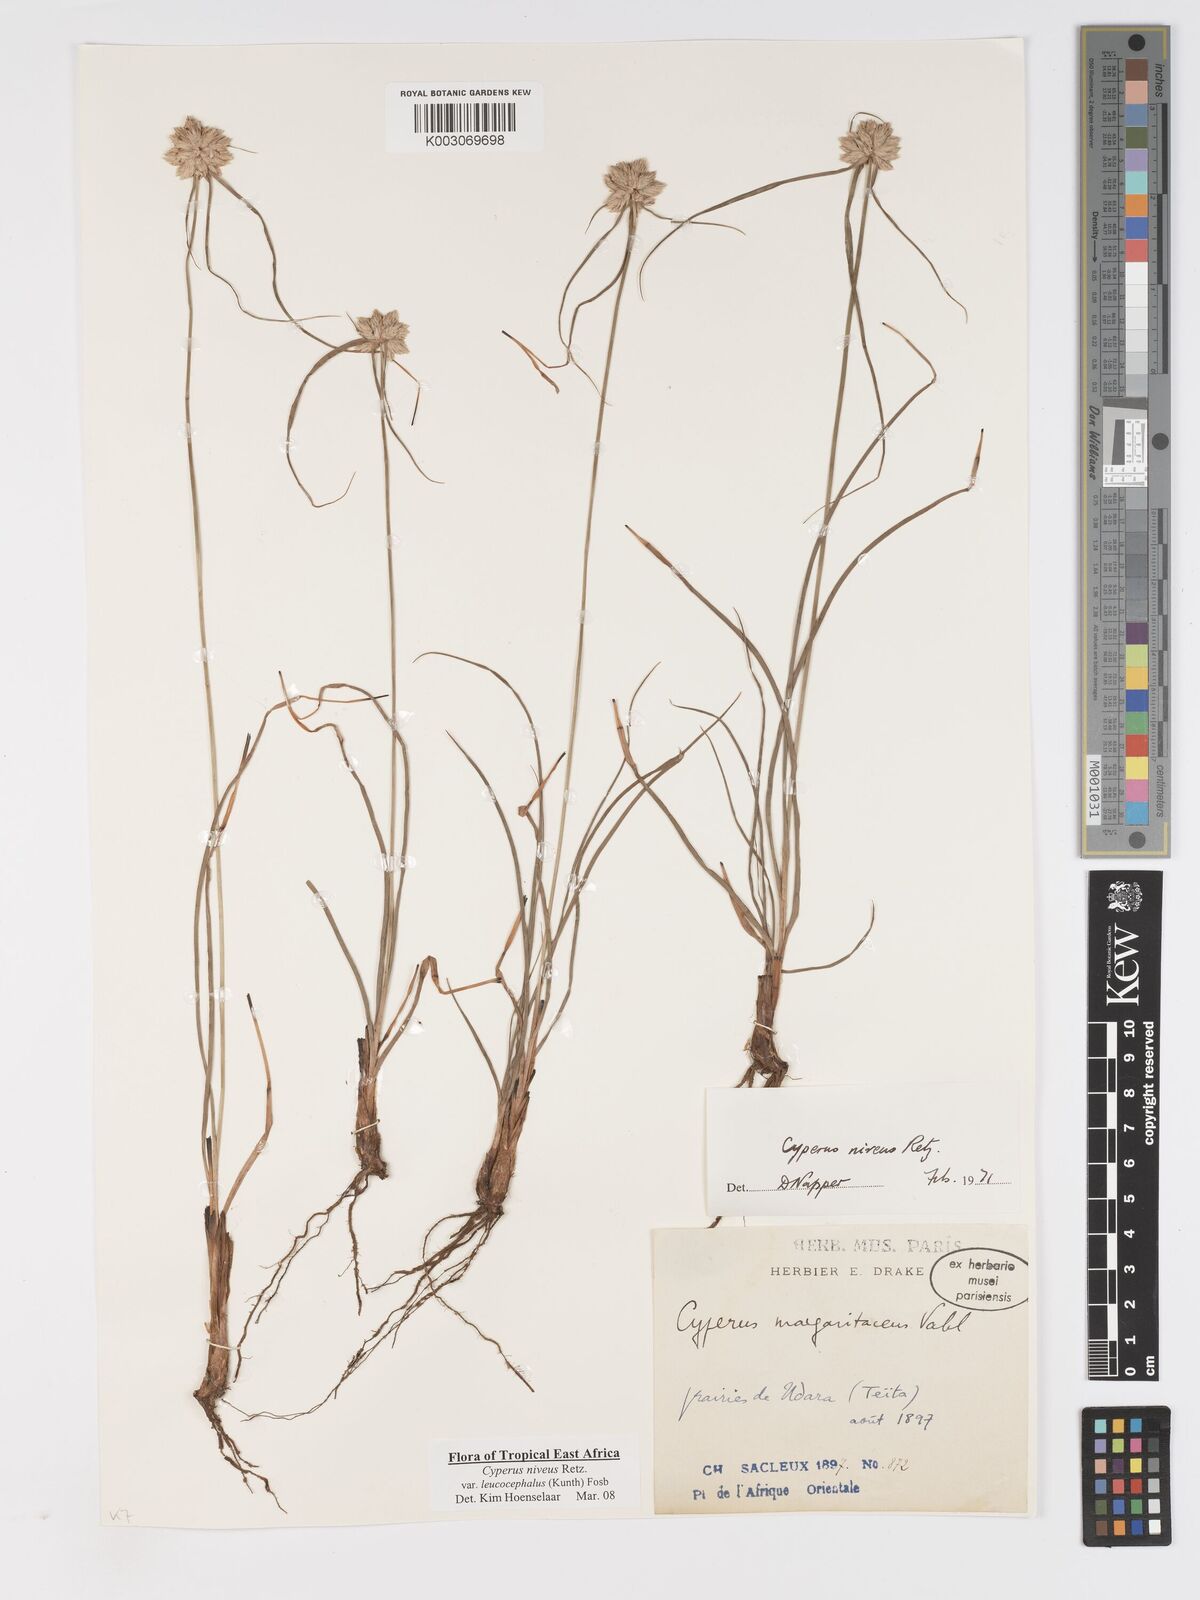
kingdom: Plantae
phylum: Tracheophyta
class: Liliopsida
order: Poales
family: Cyperaceae
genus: Cyperus
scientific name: Cyperus niveus
